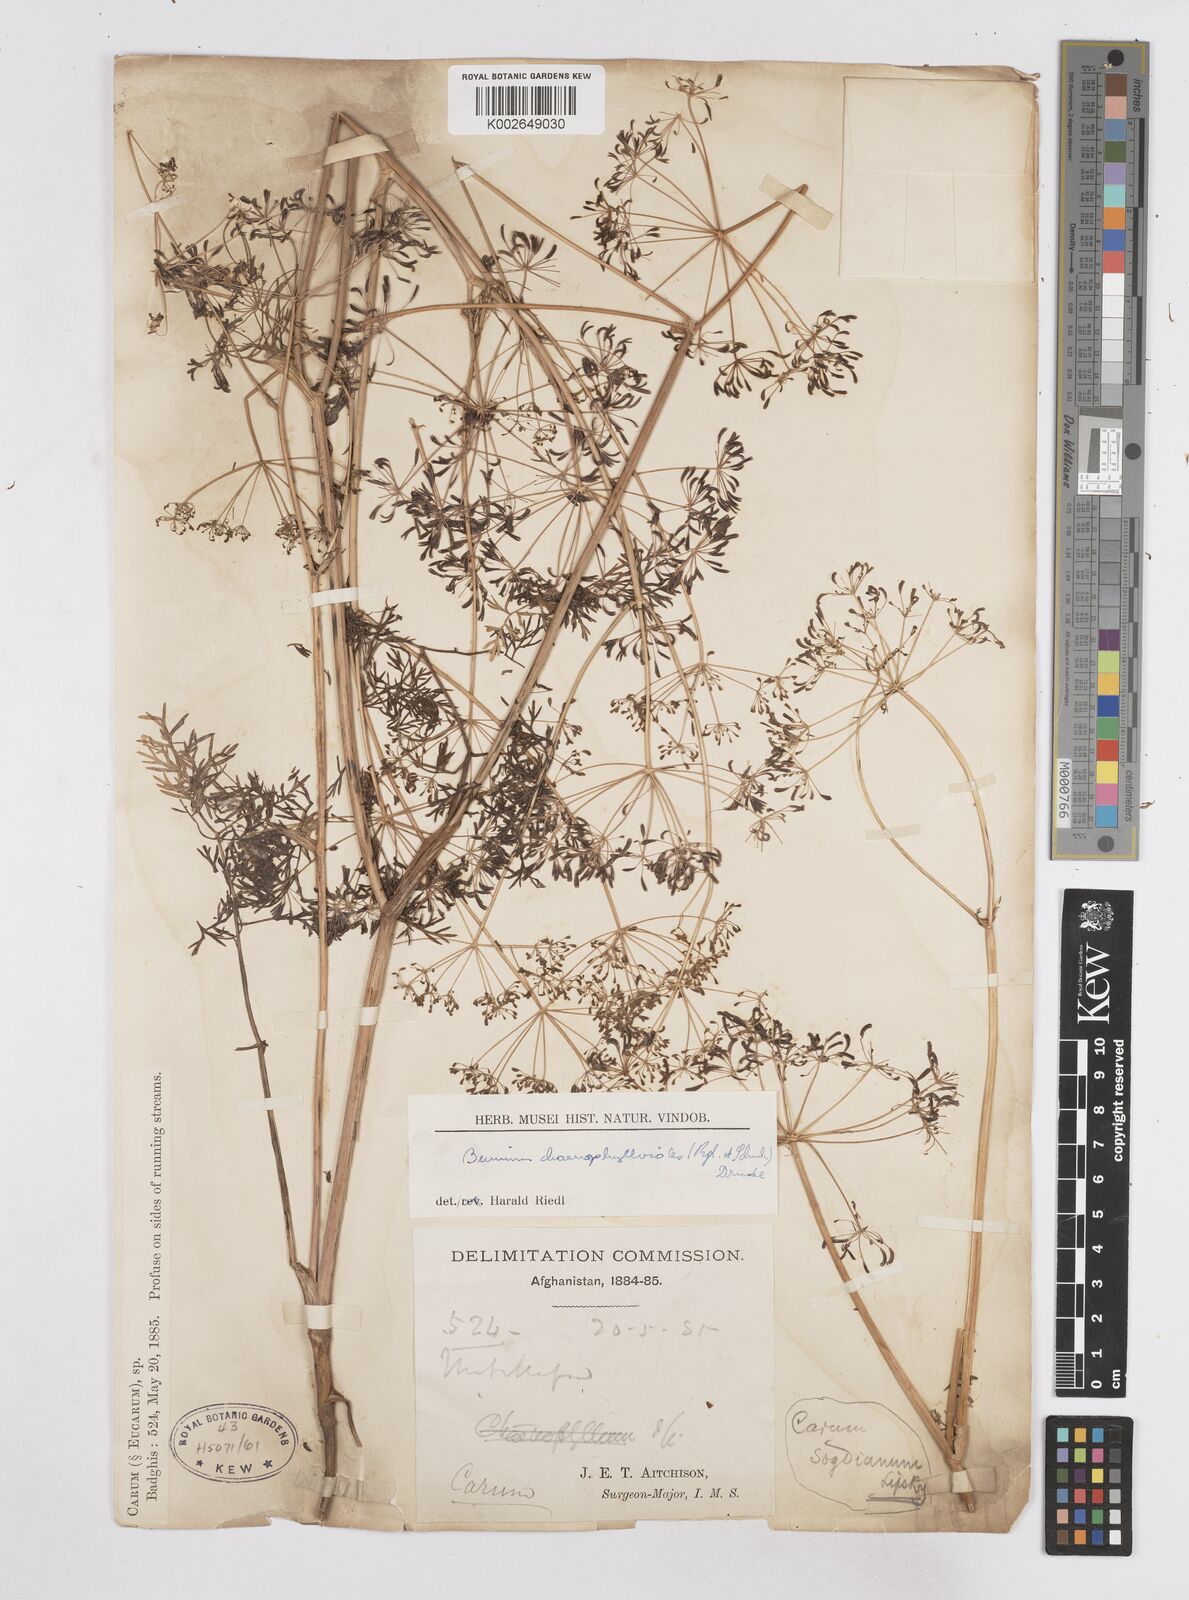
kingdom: Plantae
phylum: Tracheophyta
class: Magnoliopsida
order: Apiales
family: Apiaceae
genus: Bunium
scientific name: Bunium
